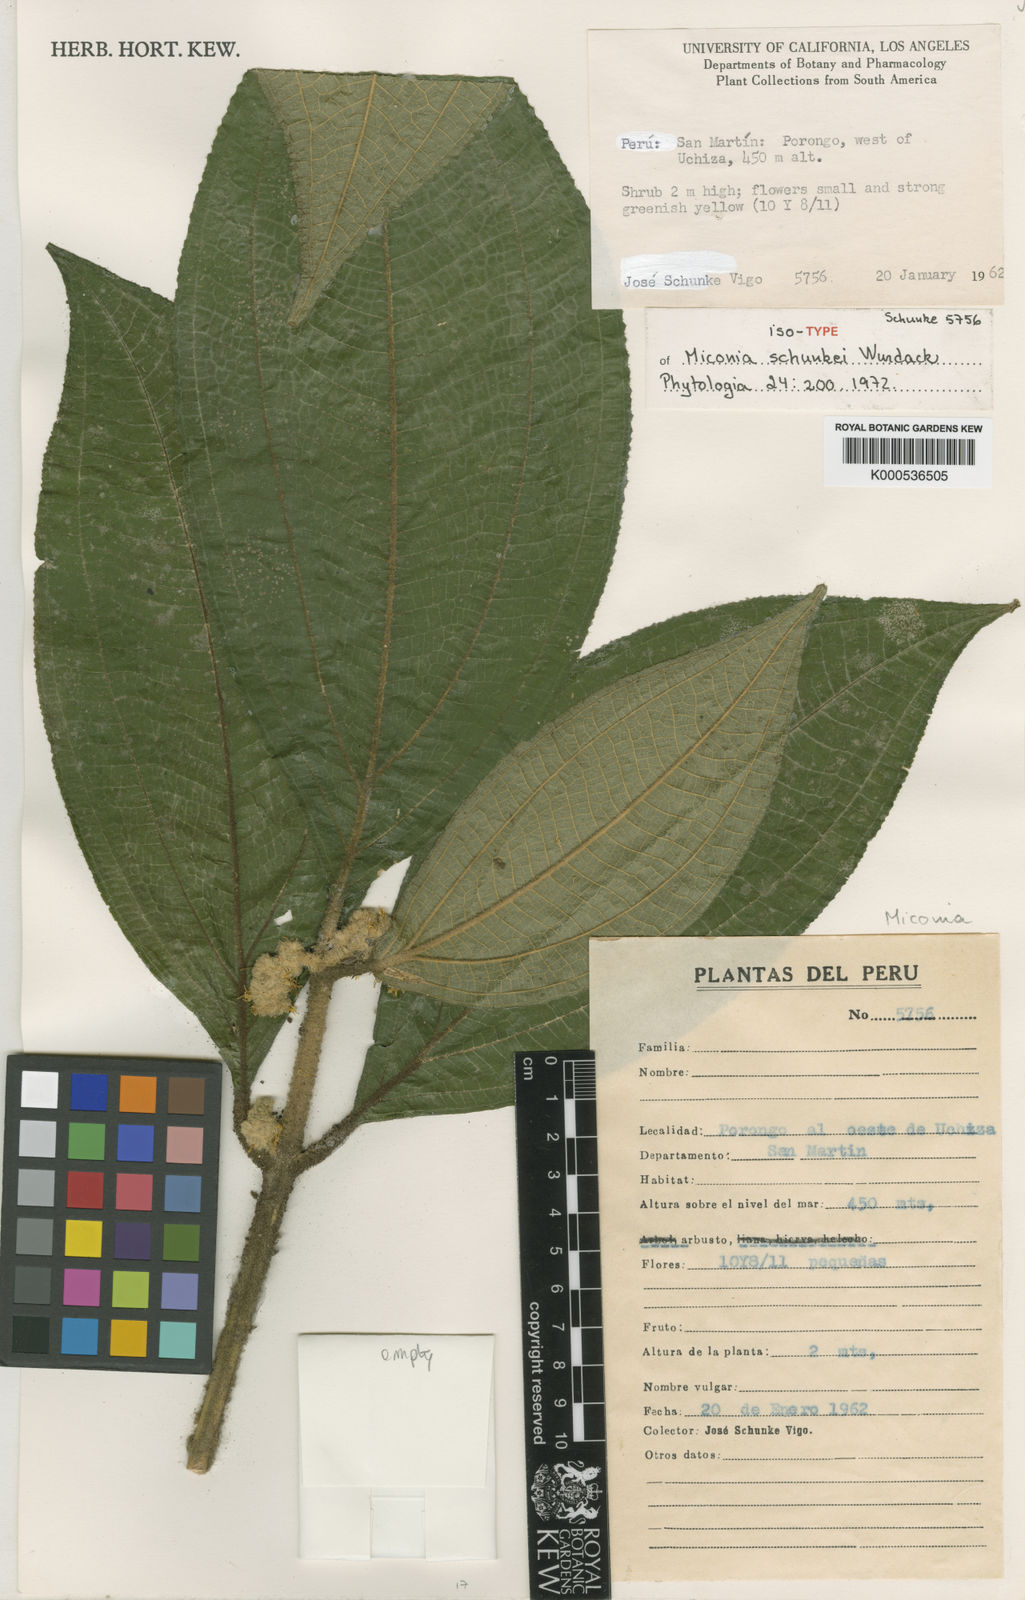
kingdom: Plantae
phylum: Tracheophyta
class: Magnoliopsida
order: Myrtales
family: Melastomataceae
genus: Miconia
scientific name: Miconia schunkei
